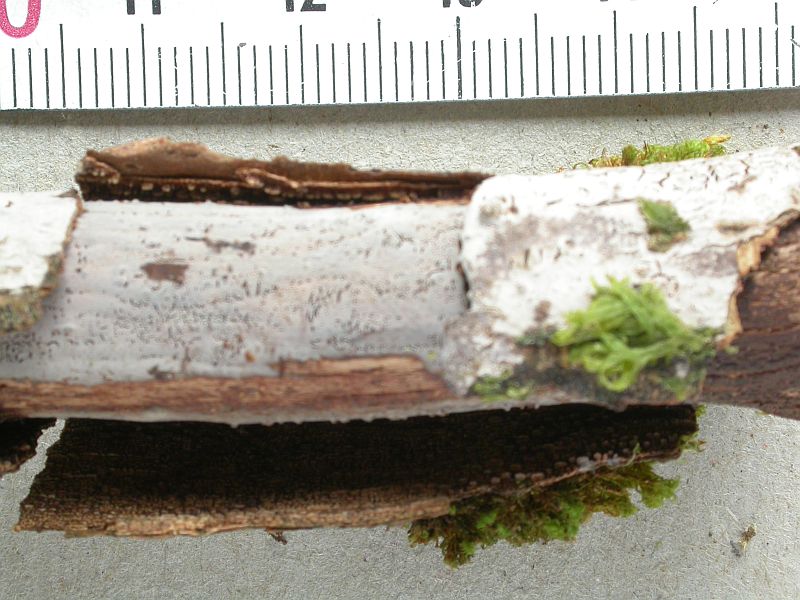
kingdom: Fungi
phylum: Basidiomycota
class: Agaricomycetes
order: Russulales
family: Peniophoraceae
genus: Peniophora
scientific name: Peniophora cinerea
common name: grå voksskind
